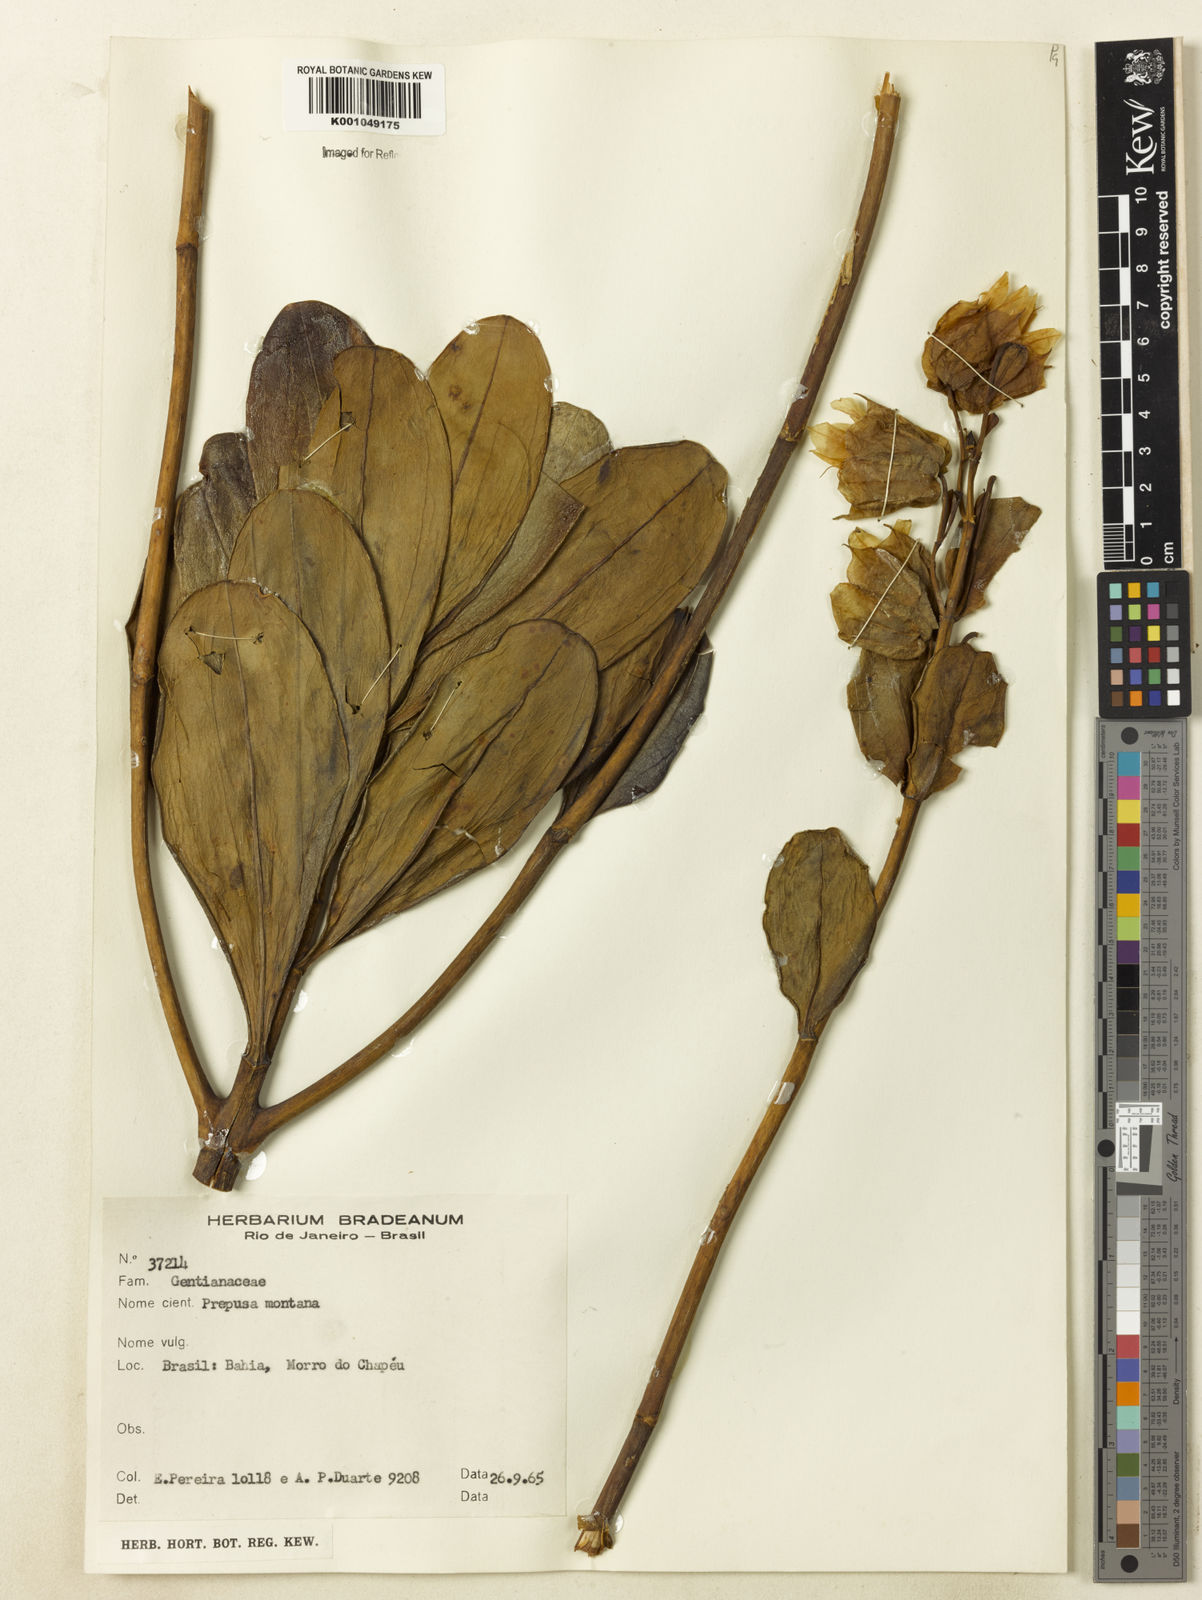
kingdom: Plantae
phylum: Tracheophyta
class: Magnoliopsida
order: Gentianales
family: Gentianaceae
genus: Prepusa
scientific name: Prepusa montana
